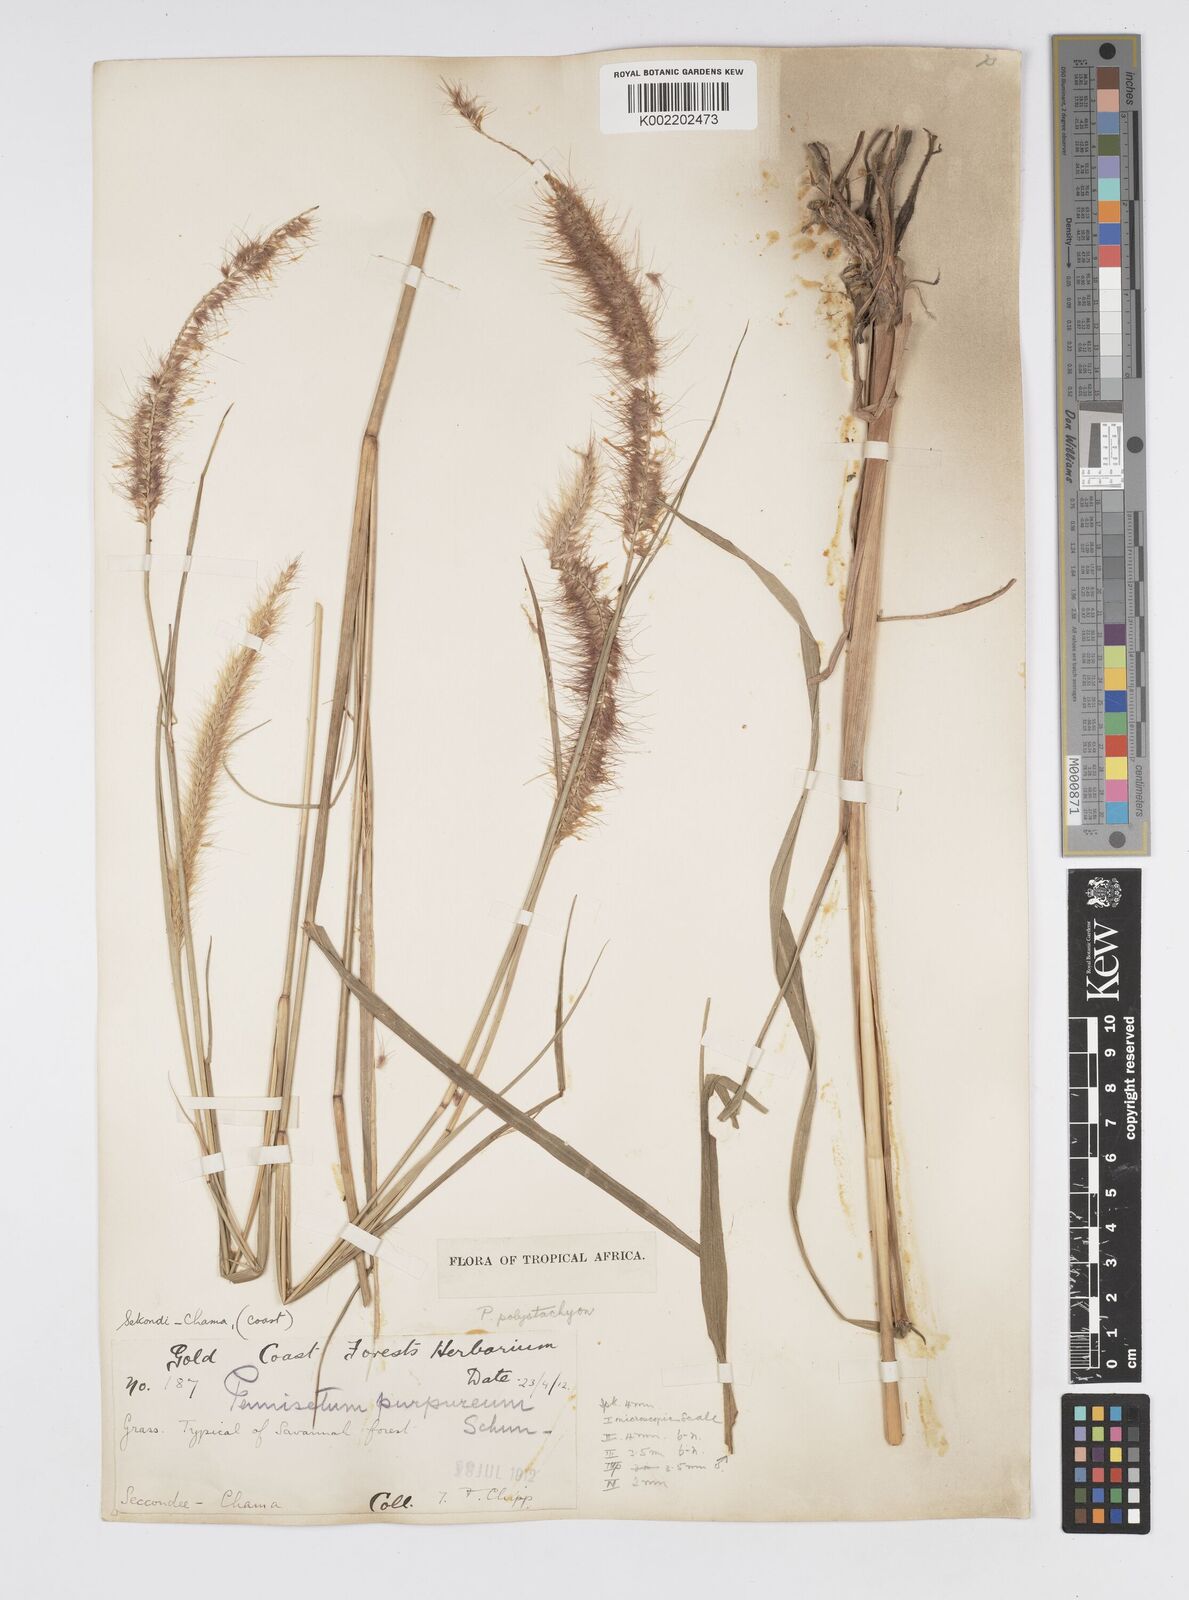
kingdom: Plantae
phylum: Tracheophyta
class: Liliopsida
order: Poales
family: Poaceae
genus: Setaria
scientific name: Setaria parviflora
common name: Knotroot bristle-grass
